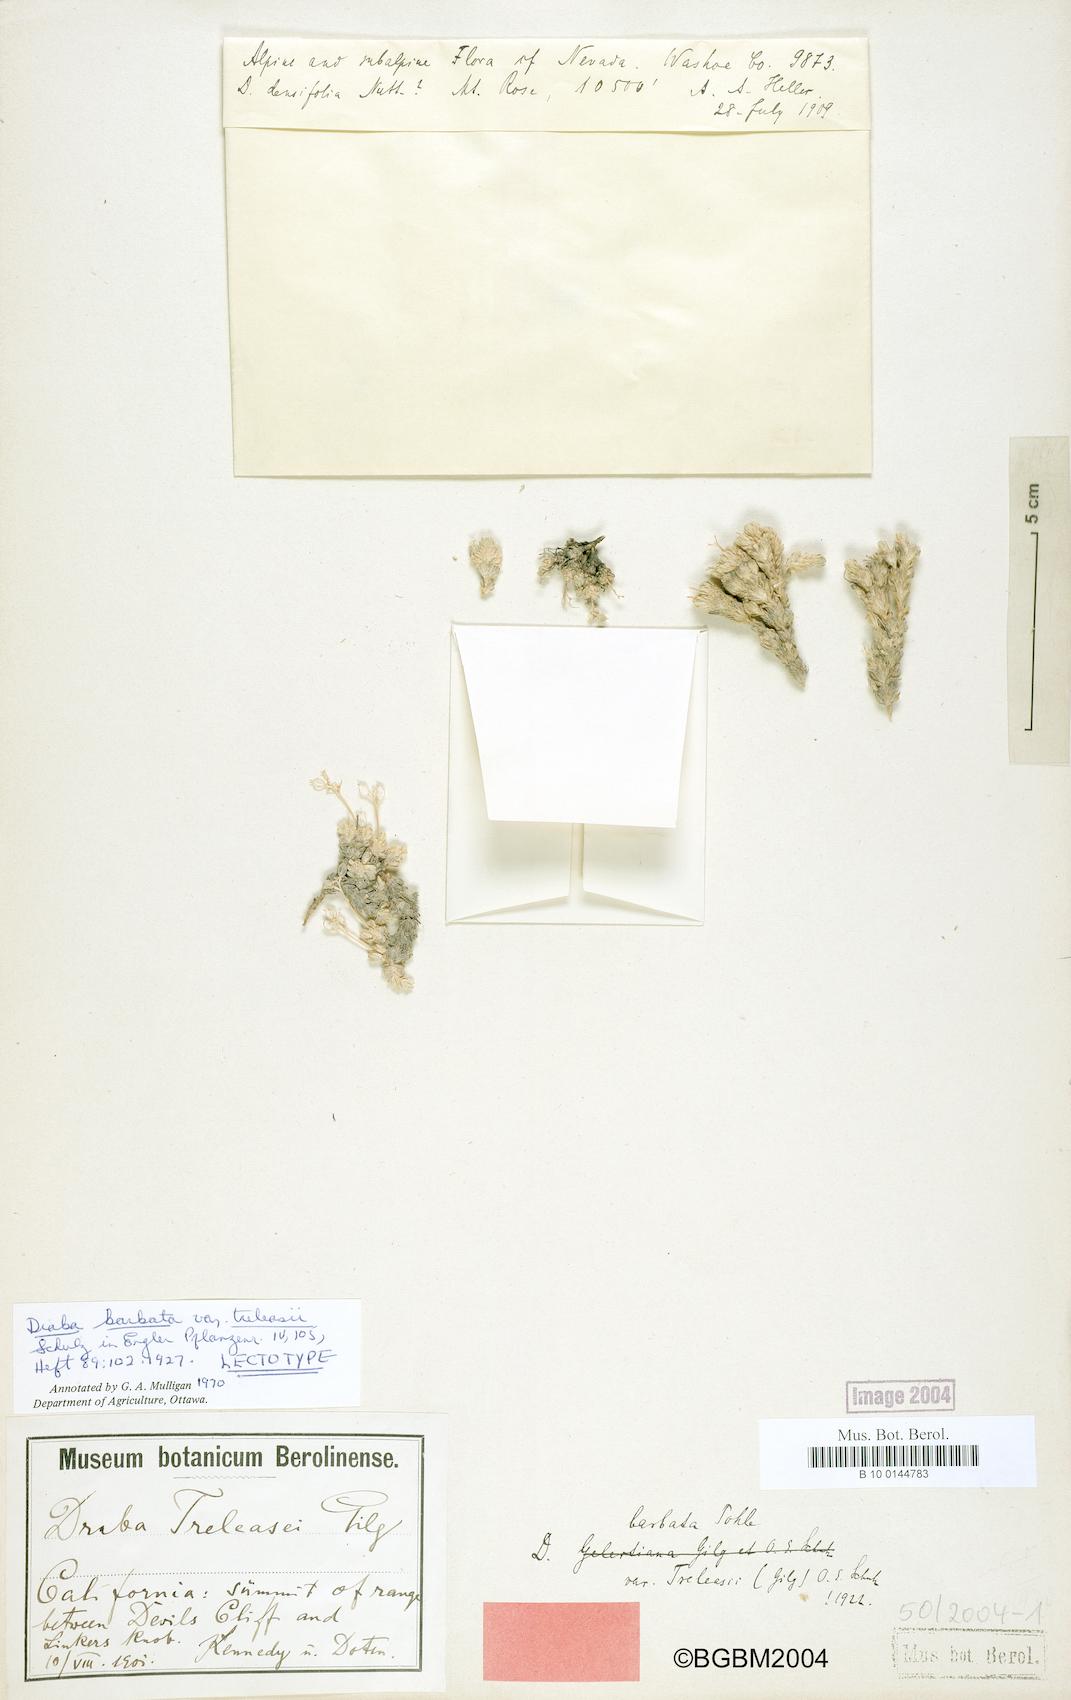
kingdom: Plantae
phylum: Tracheophyta
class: Magnoliopsida
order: Brassicales
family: Brassicaceae
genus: Draba
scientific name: Draba novolympica
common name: Olympic mountains draba
